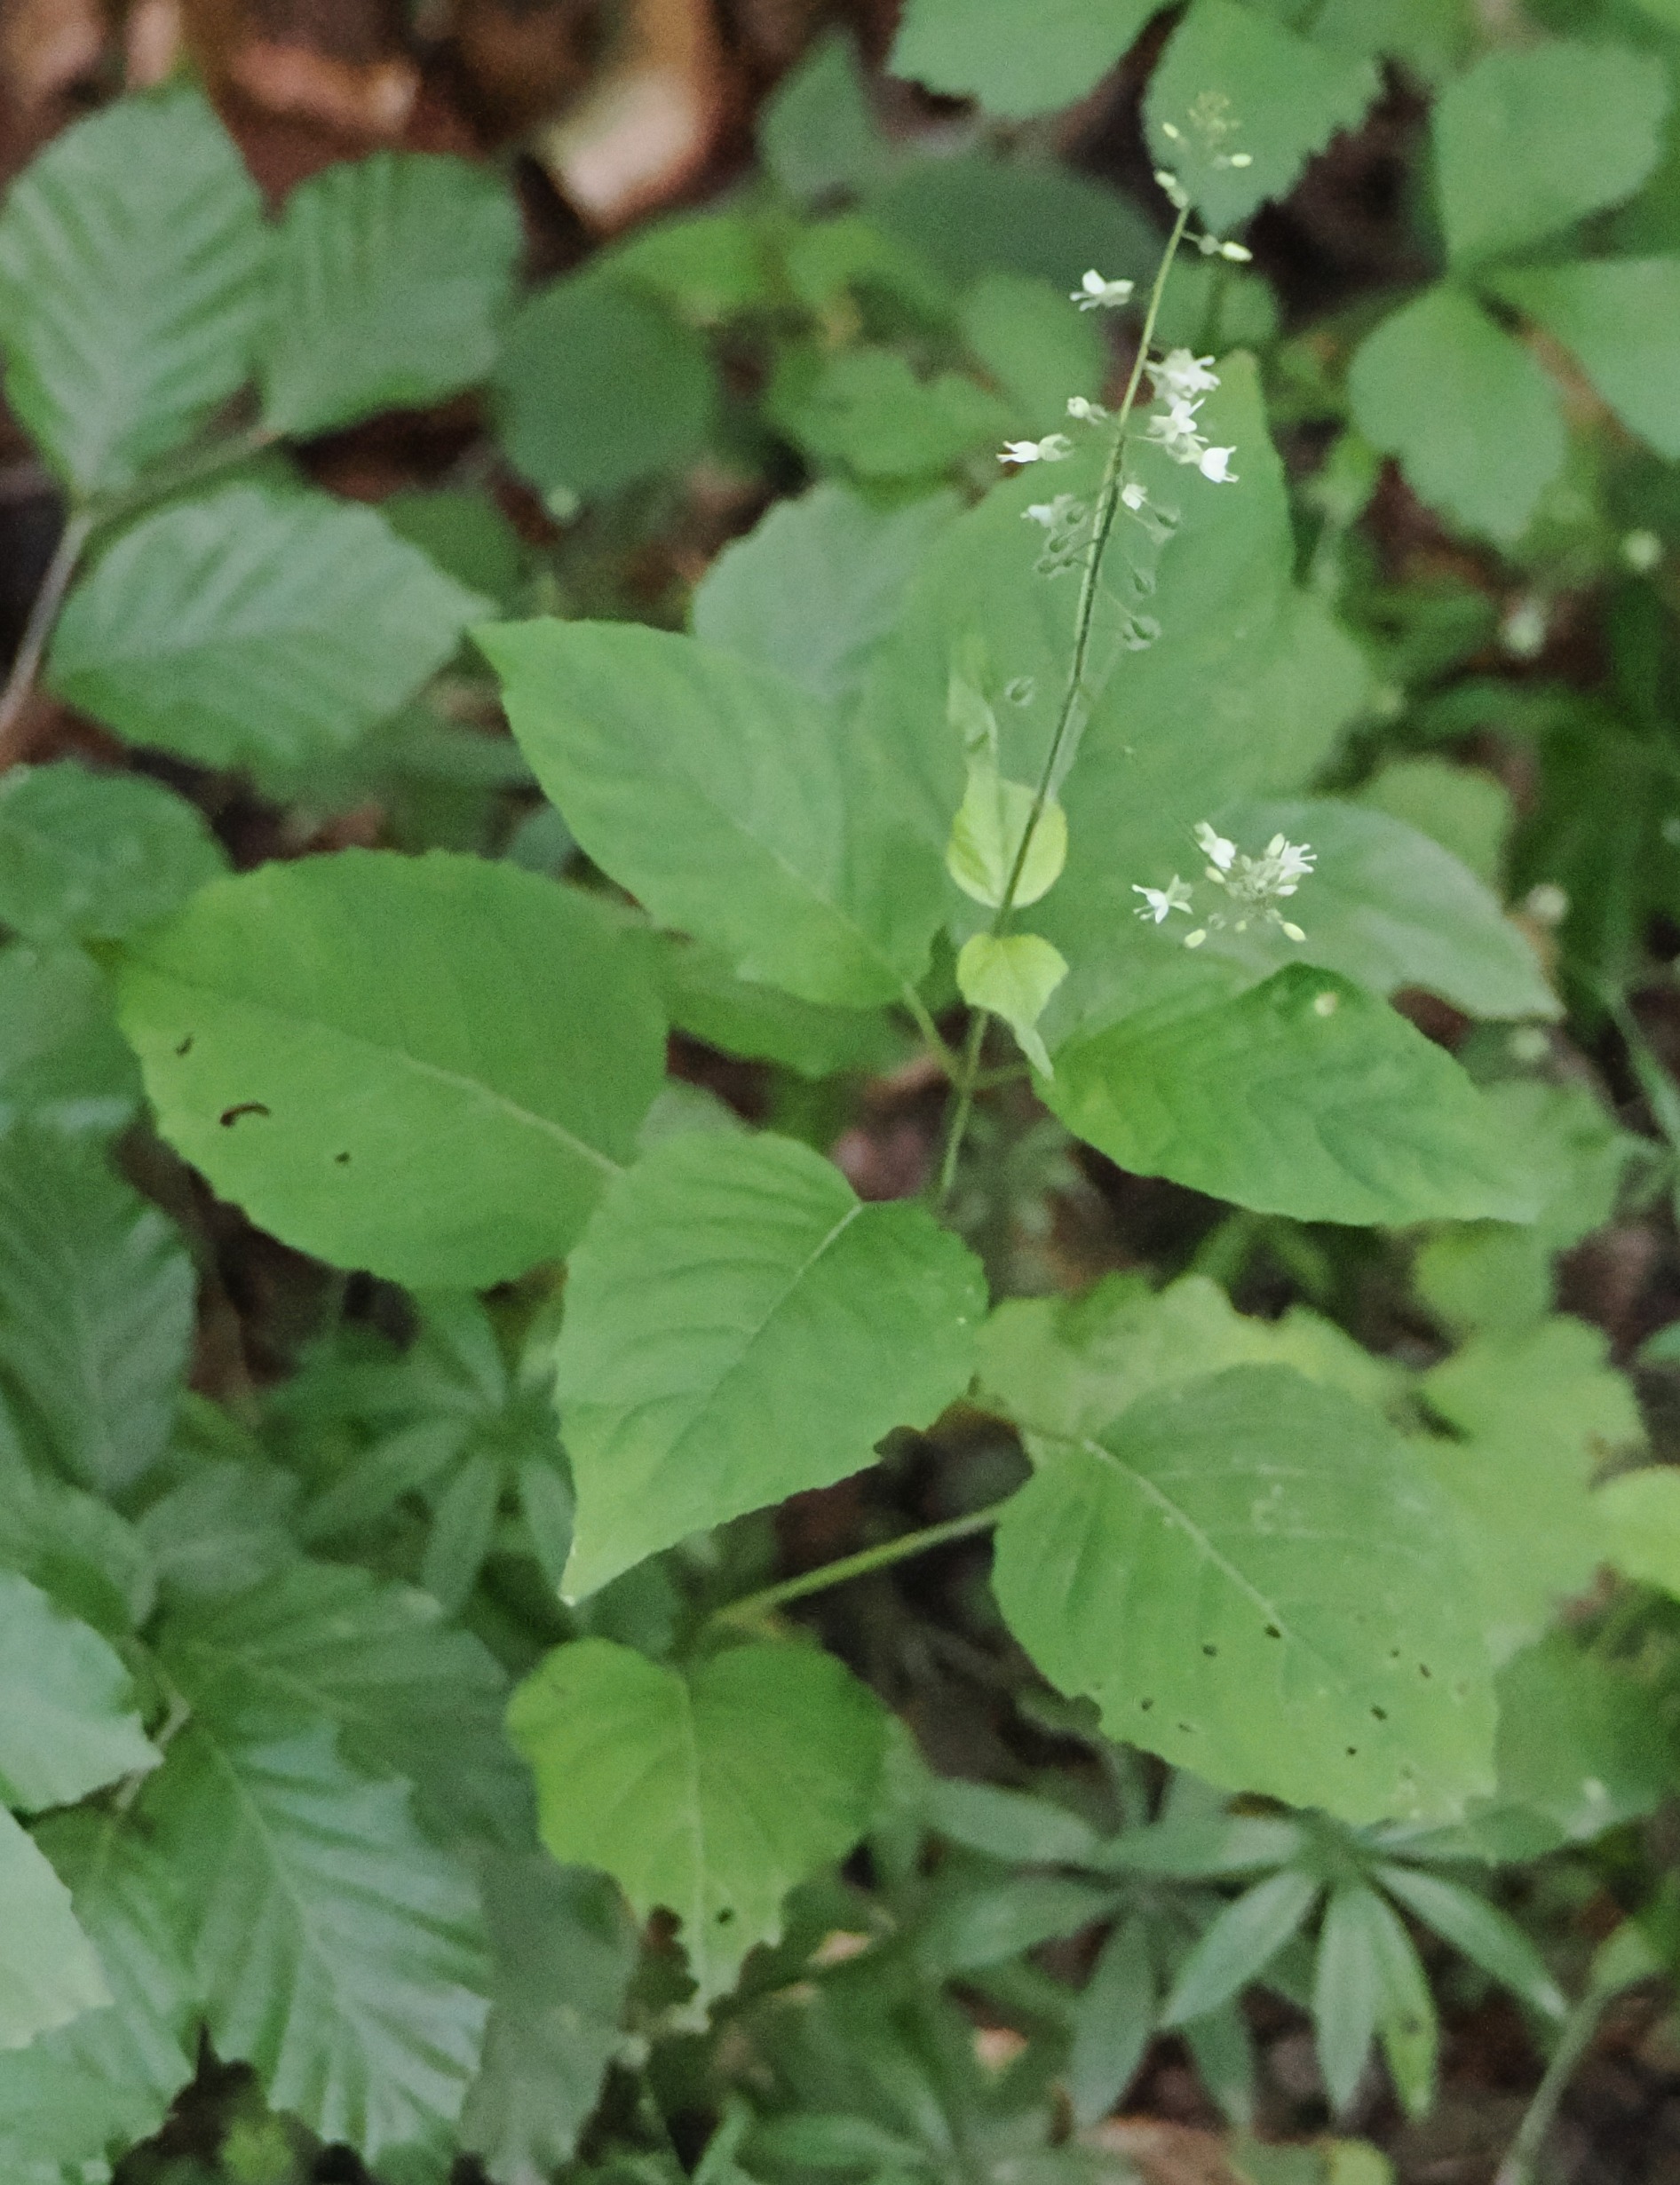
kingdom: Plantae
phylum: Tracheophyta
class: Magnoliopsida
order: Myrtales
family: Onagraceae
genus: Circaea
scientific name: Circaea lutetiana
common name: Dunet steffensurt
